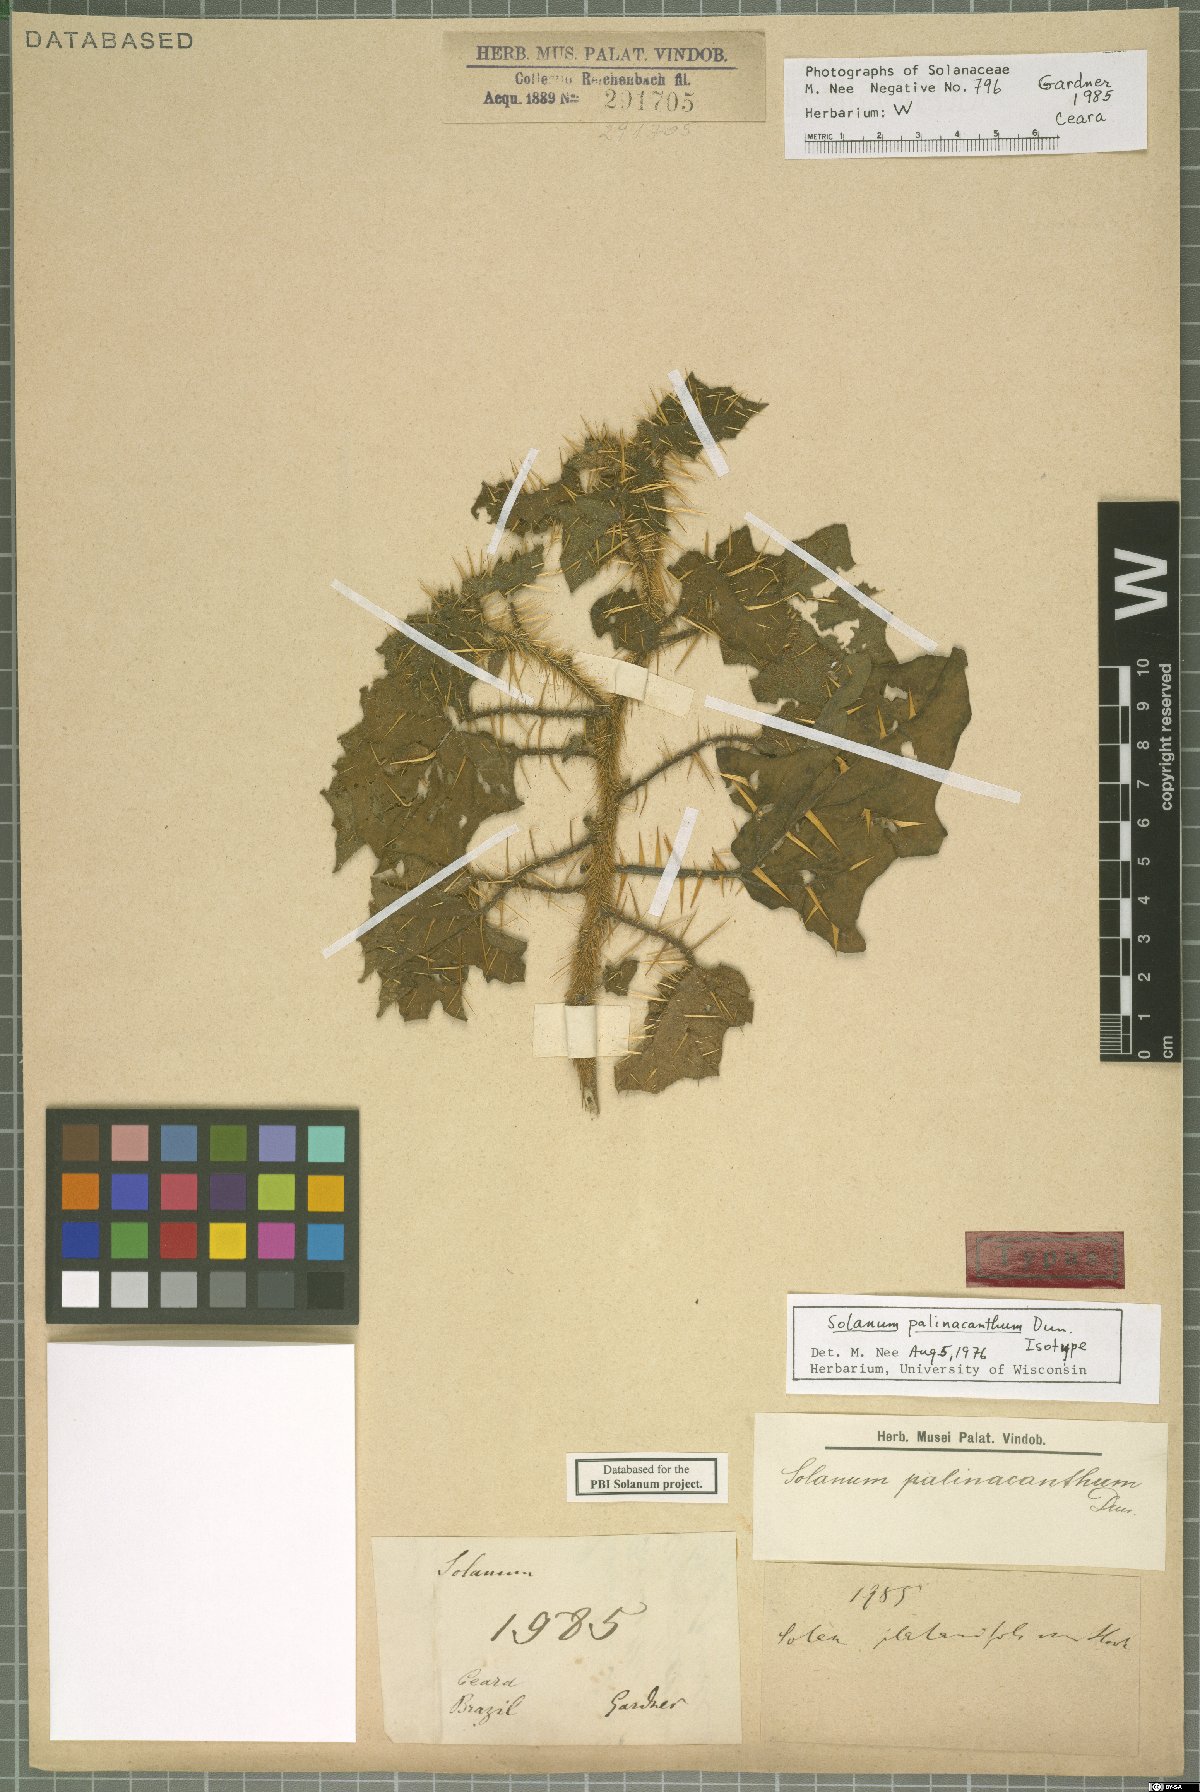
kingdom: Plantae
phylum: Tracheophyta
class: Magnoliopsida
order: Solanales
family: Solanaceae
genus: Solanum
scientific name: Solanum palinacanthum
